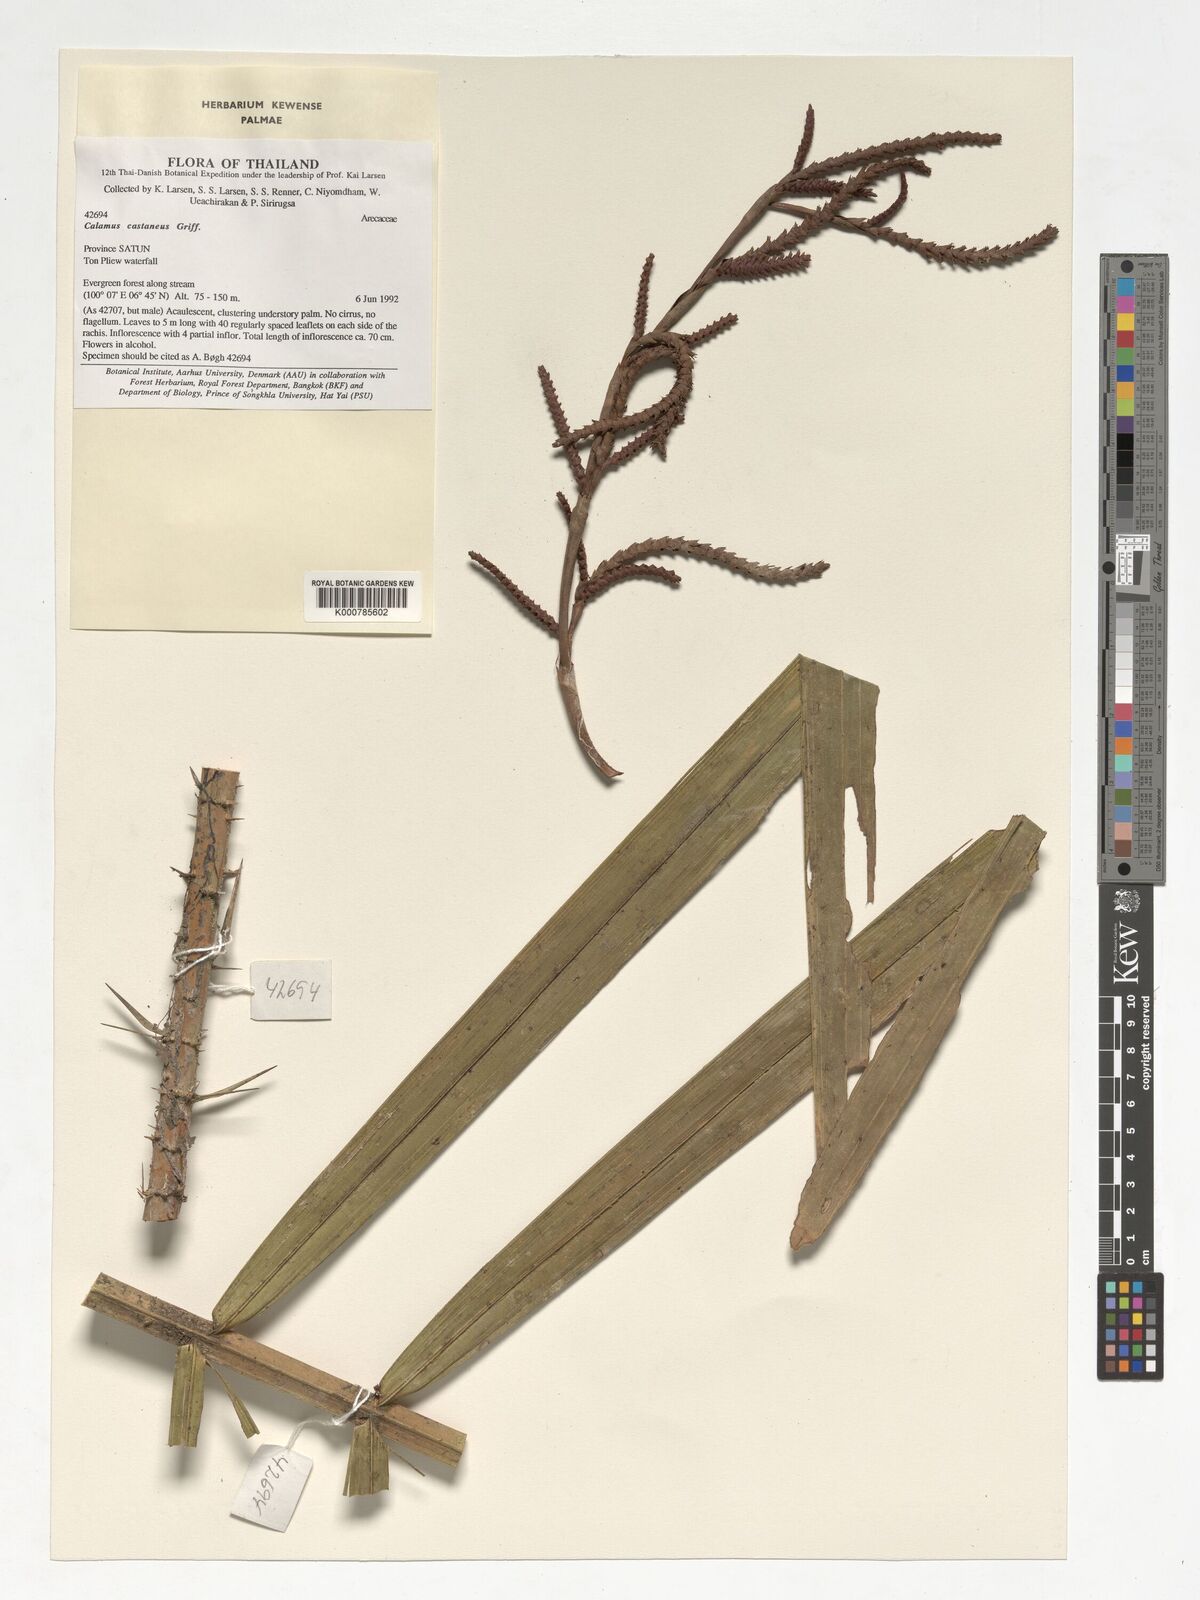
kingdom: Plantae
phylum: Tracheophyta
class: Liliopsida
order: Arecales
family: Arecaceae
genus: Calamus
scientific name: Calamus castaneus
